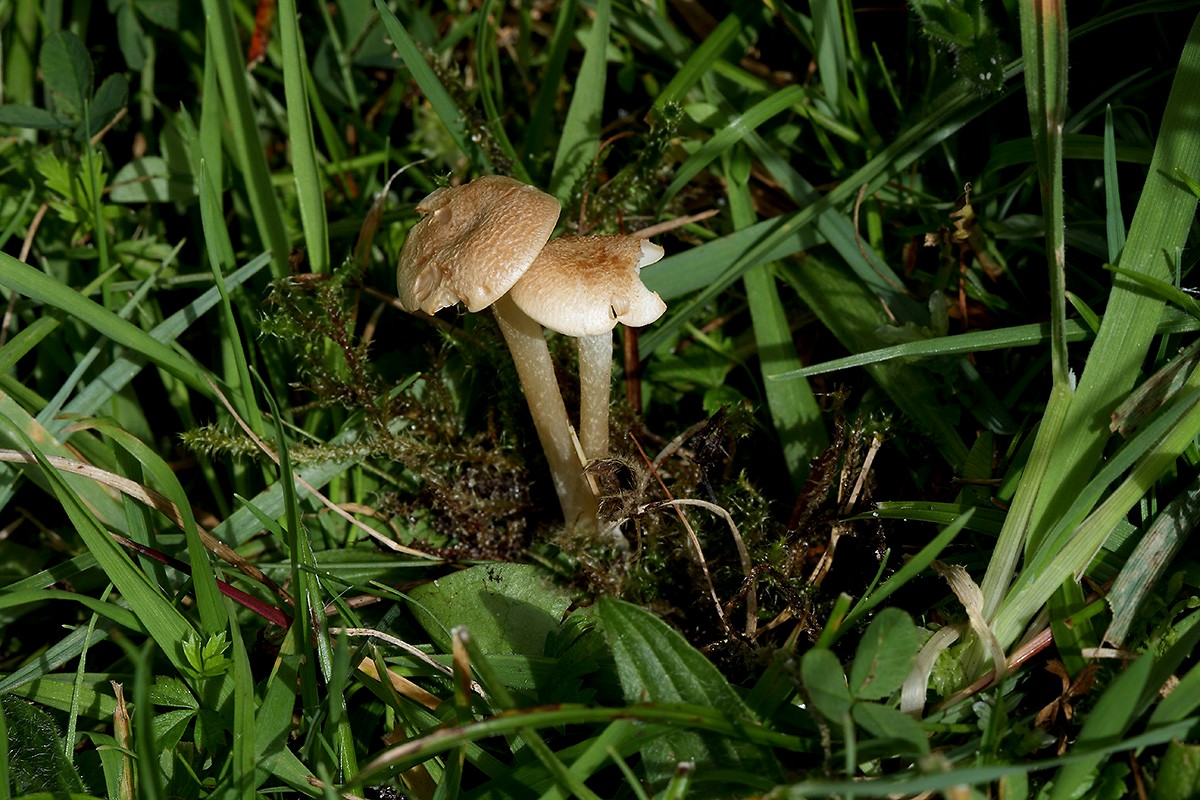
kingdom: Fungi
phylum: Basidiomycota
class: Agaricomycetes
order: Agaricales
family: Entolomataceae
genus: Entoloma
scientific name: Entoloma queletii
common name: rosalilla rødblad
